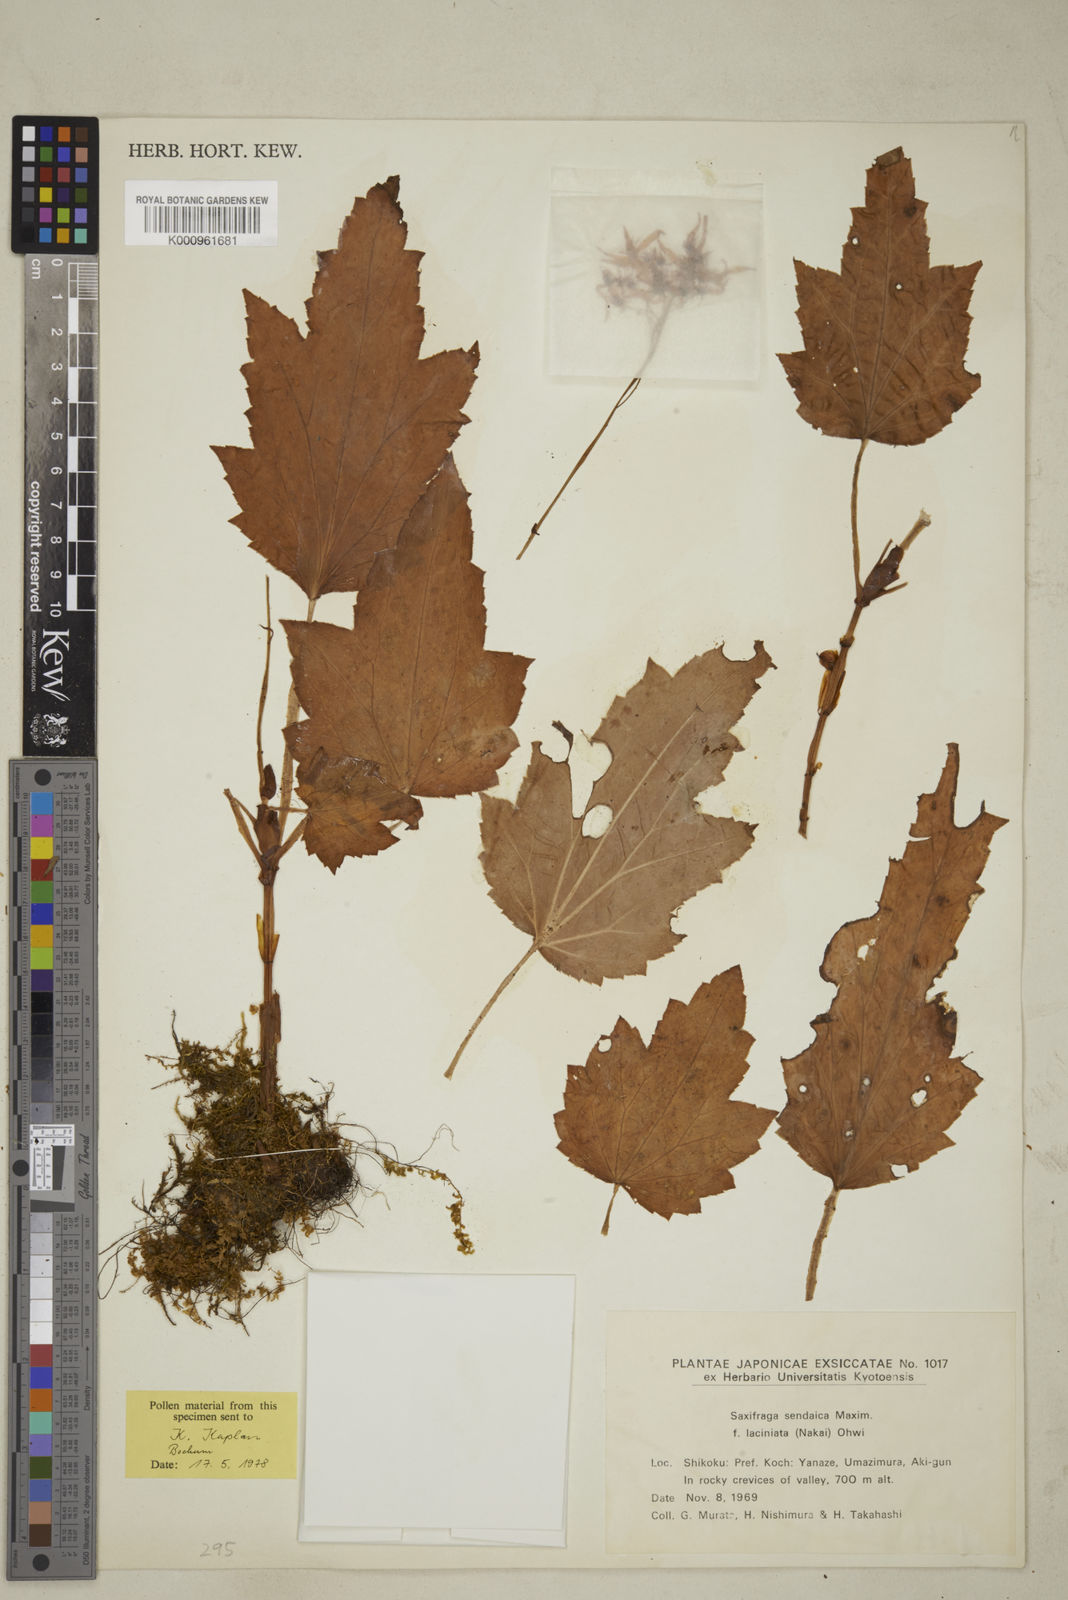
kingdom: Plantae
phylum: Tracheophyta
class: Magnoliopsida
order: Saxifragales
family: Saxifragaceae
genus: Saxifraga
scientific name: Saxifraga sendaica
